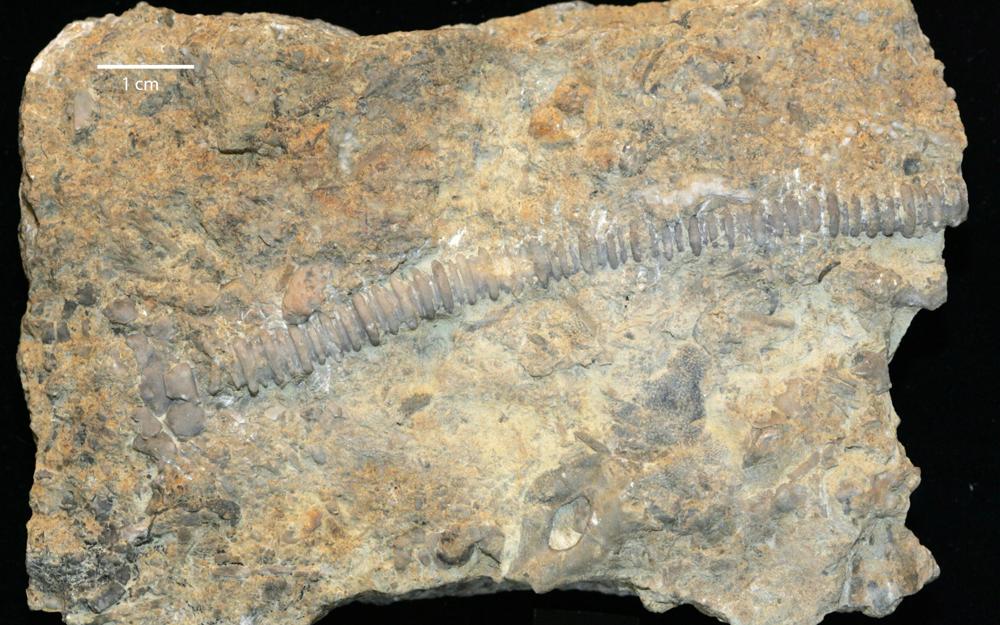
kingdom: Animalia
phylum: Echinodermata
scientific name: Echinodermata
